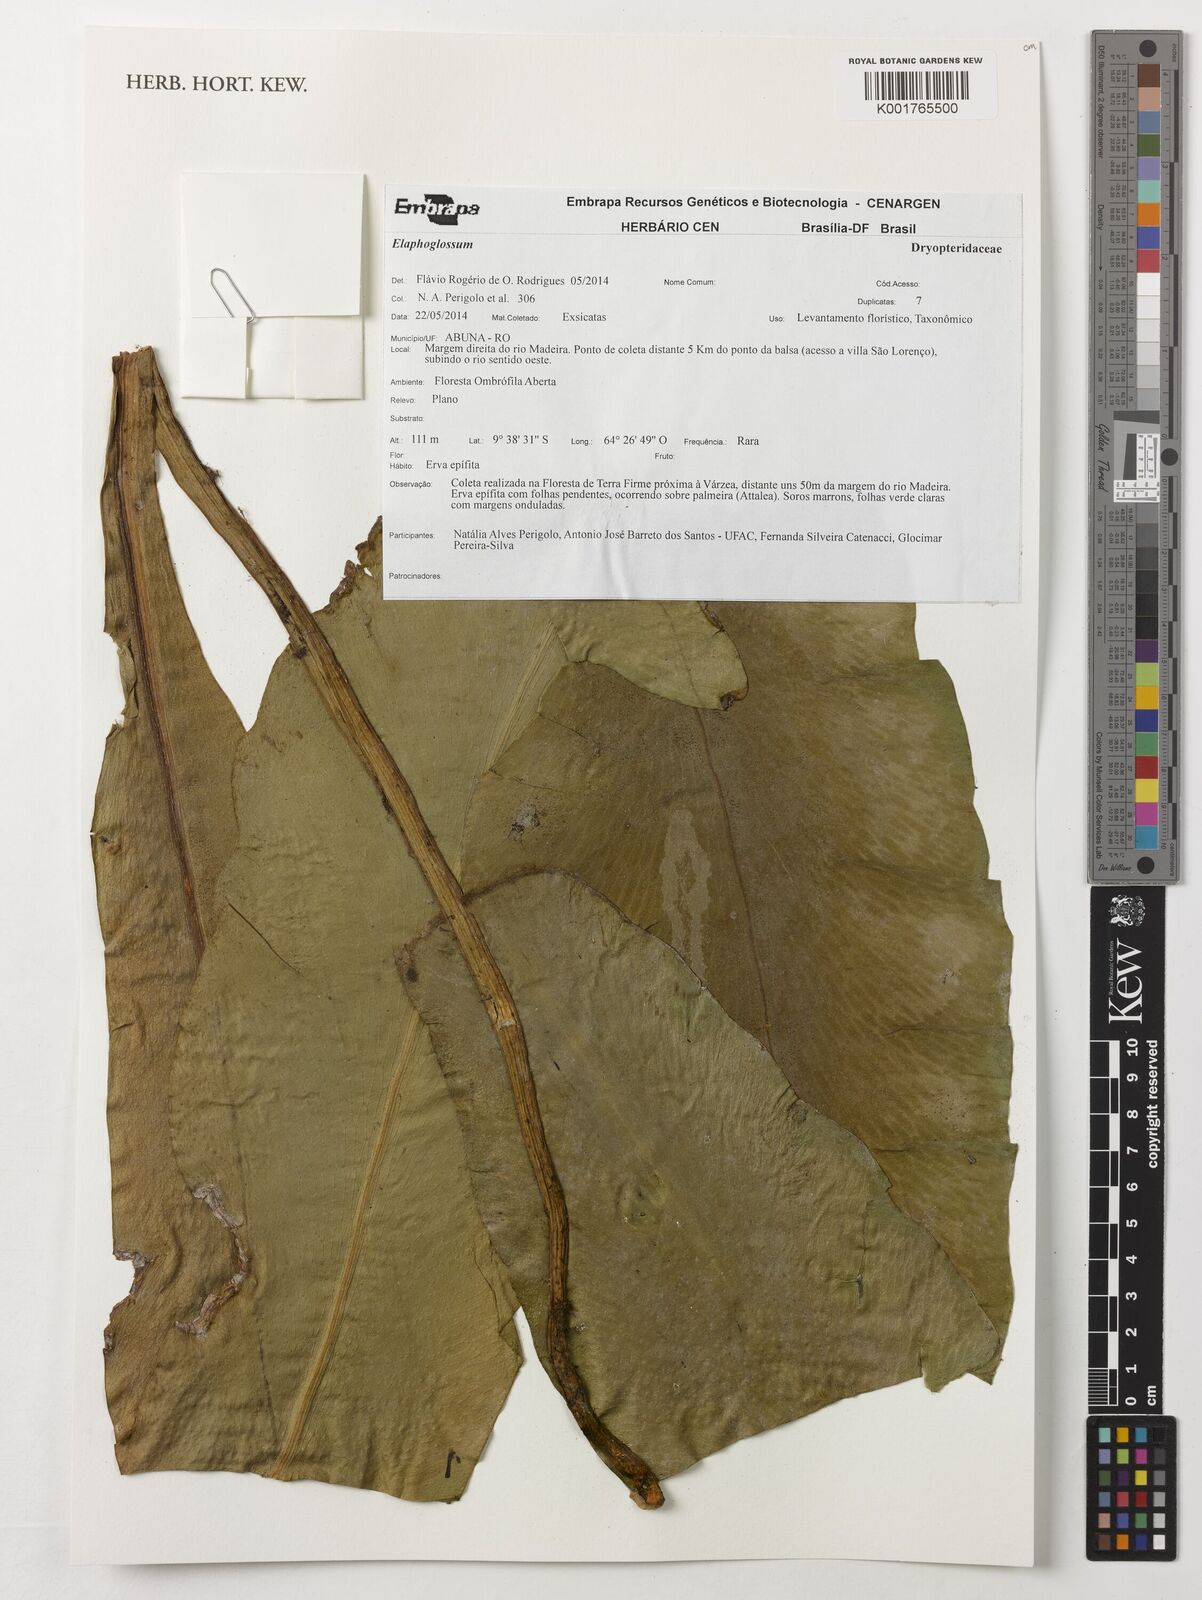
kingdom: Plantae
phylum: Tracheophyta
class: Polypodiopsida
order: Polypodiales
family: Dryopteridaceae
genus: Elaphoglossum
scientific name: Elaphoglossum
